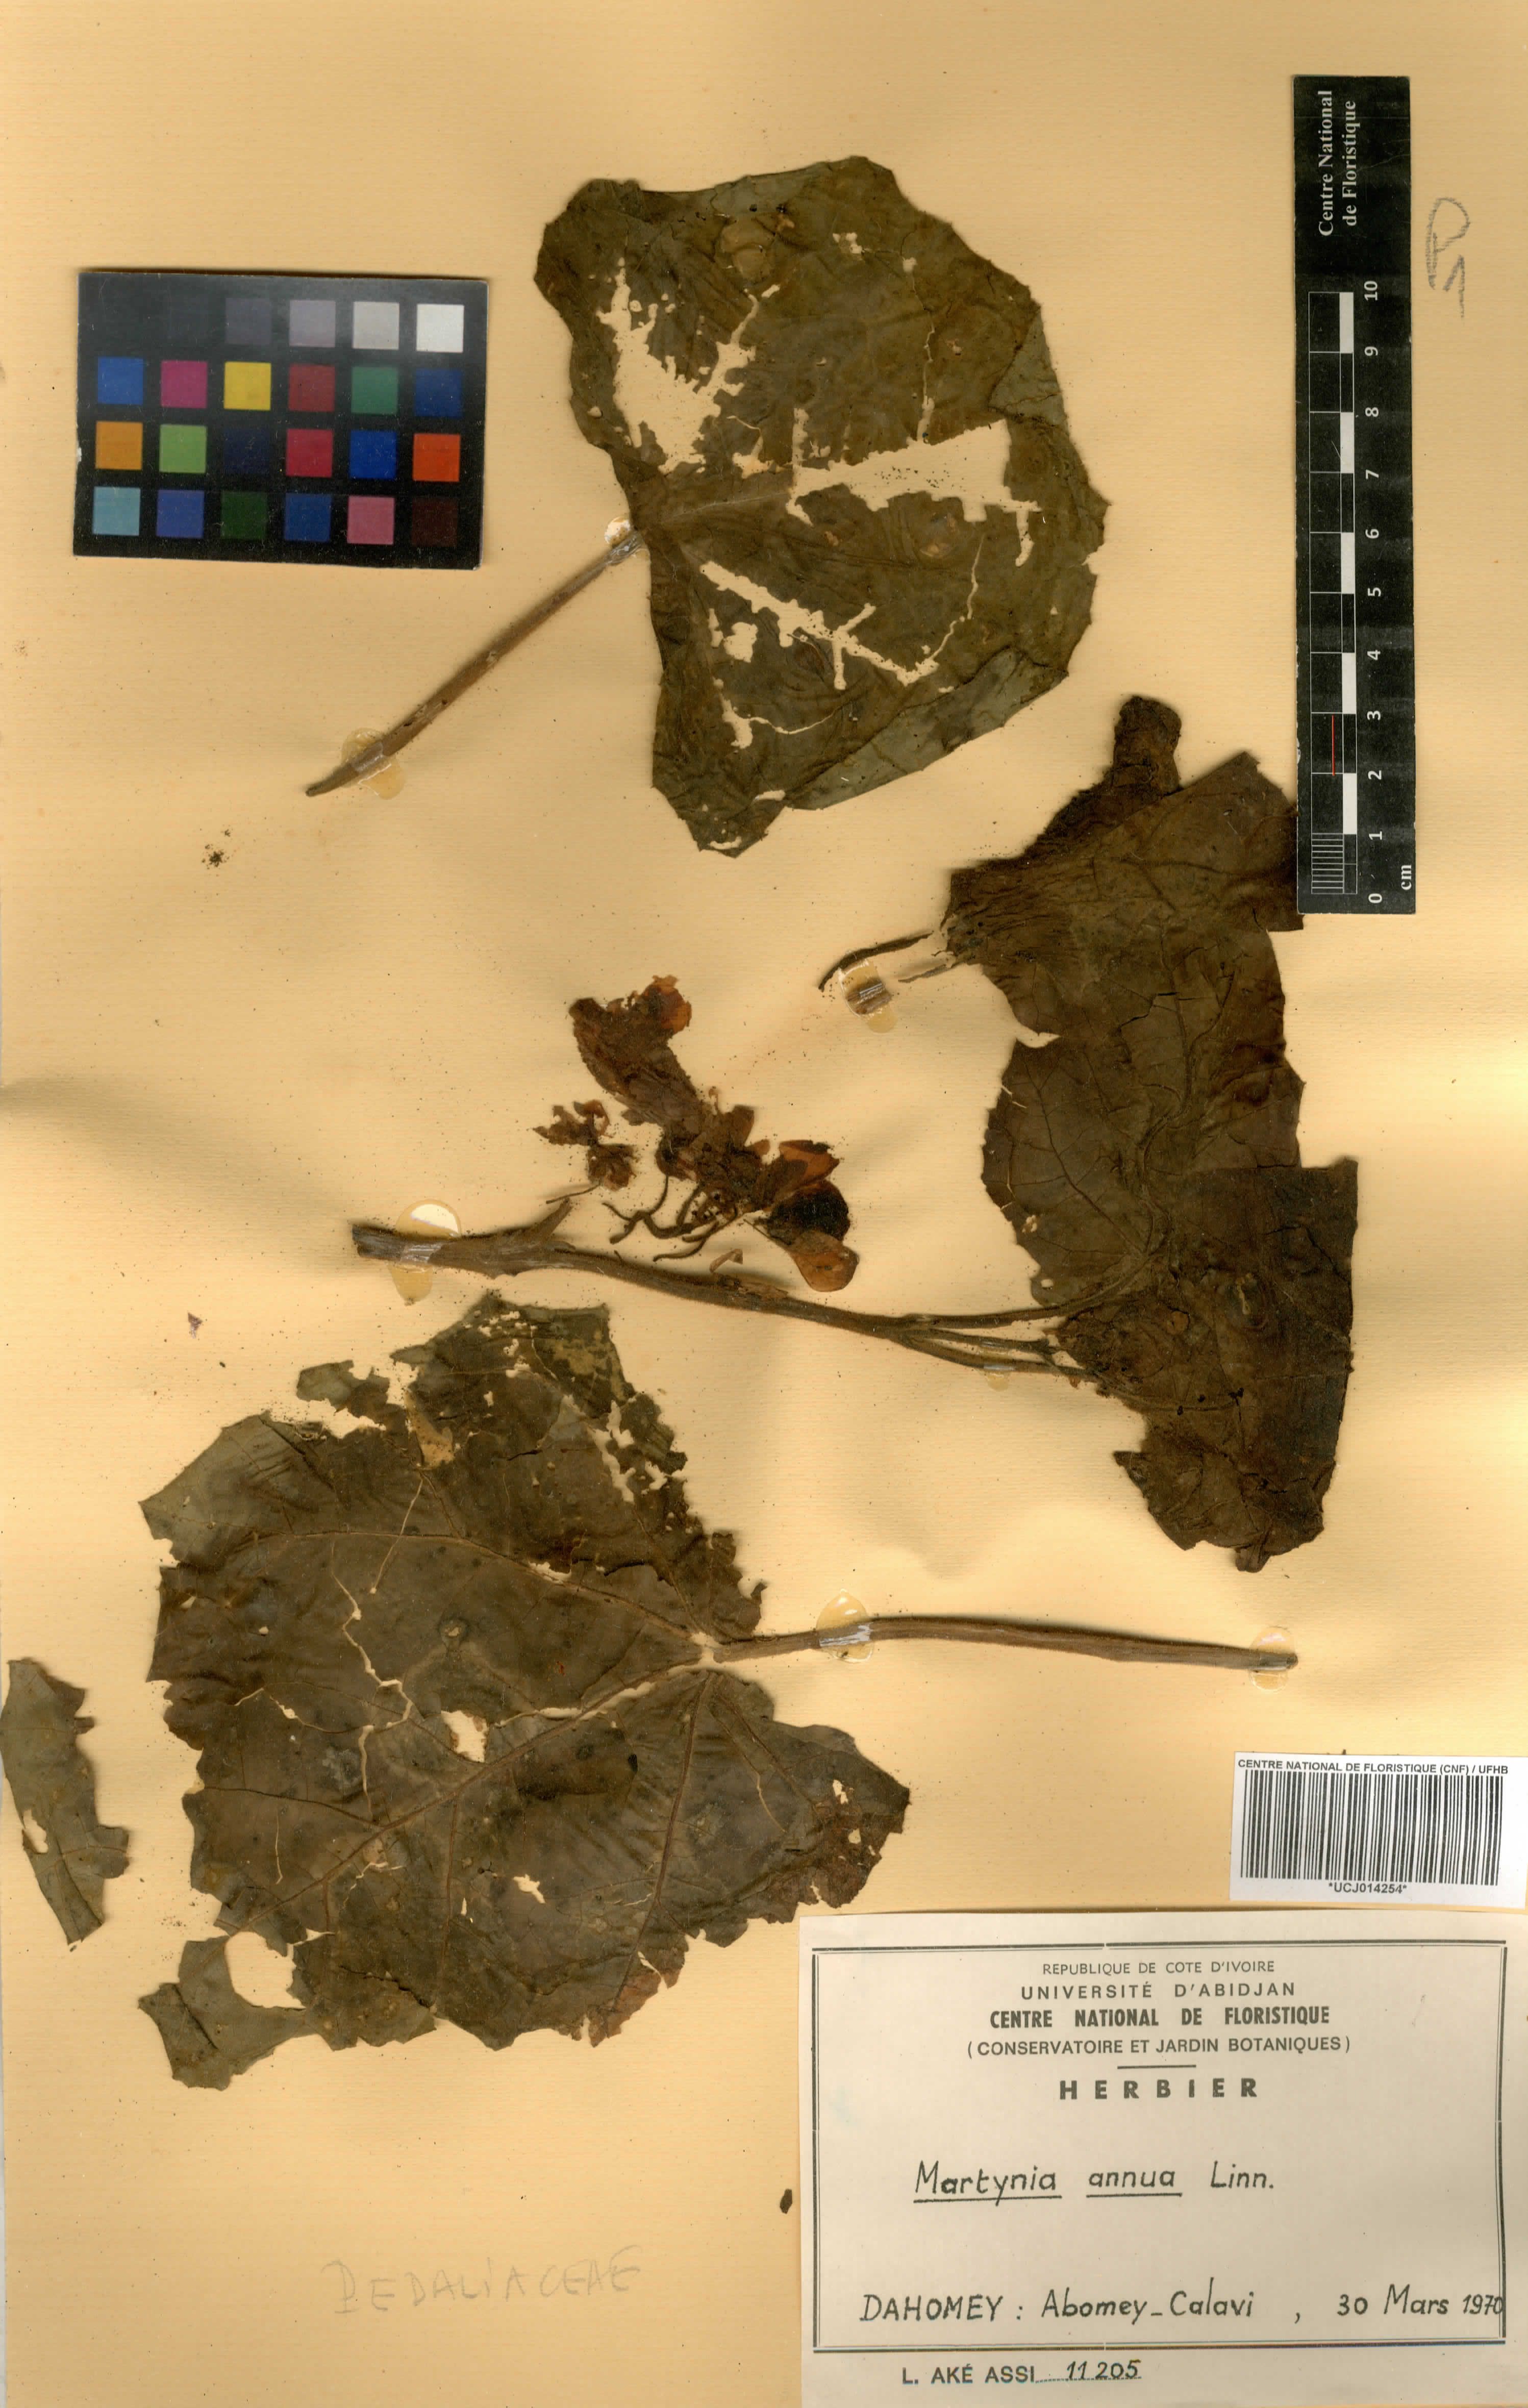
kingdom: Plantae
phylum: Tracheophyta
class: Magnoliopsida
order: Lamiales
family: Martyniaceae
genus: Martynia
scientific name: Martynia annua
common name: Tiger's-claw
